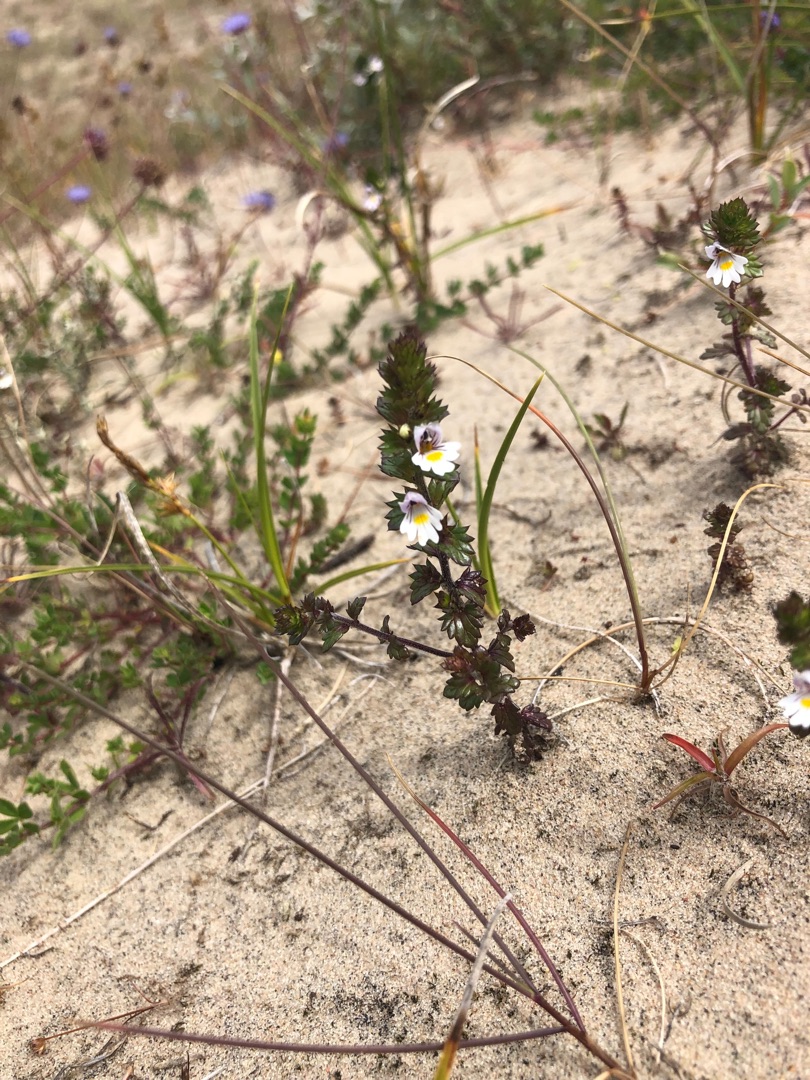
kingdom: Plantae
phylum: Tracheophyta
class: Magnoliopsida
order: Lamiales
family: Orobanchaceae
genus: Euphrasia
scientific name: Euphrasia arctica
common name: Nordisk øjentrøst
